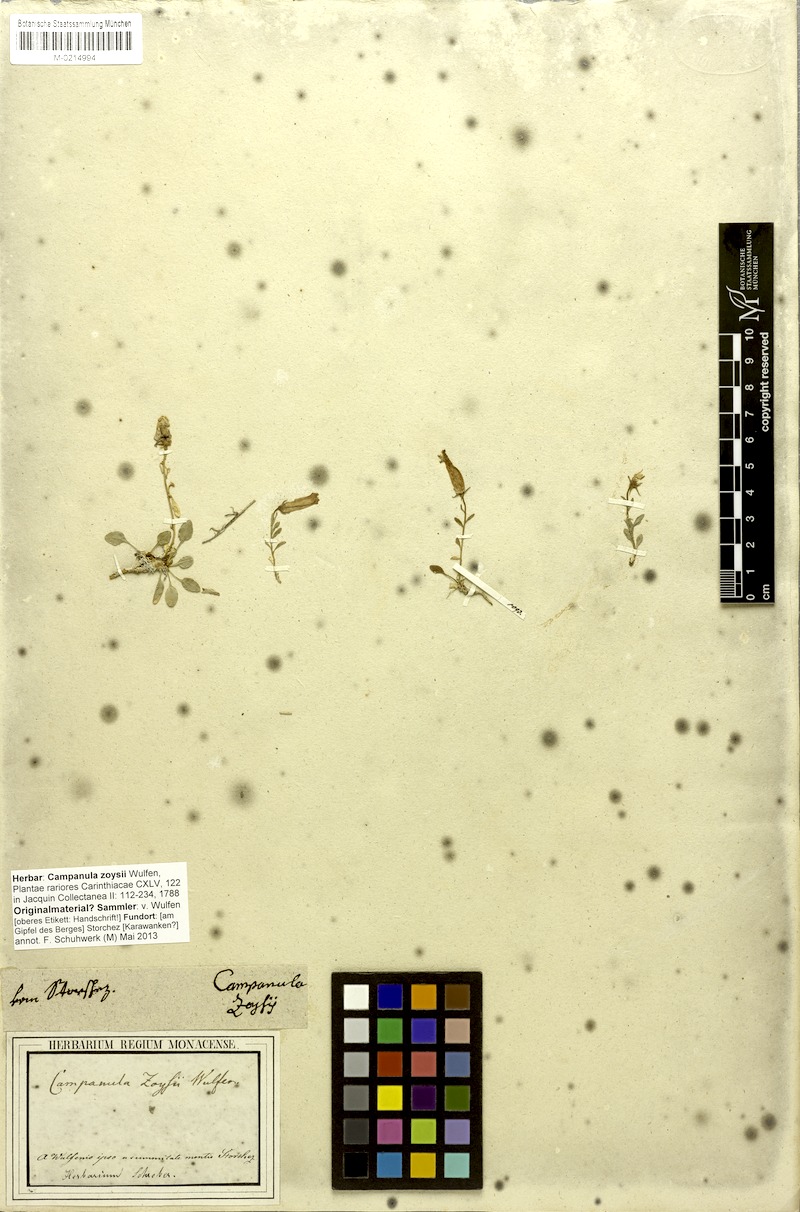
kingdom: Plantae
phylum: Tracheophyta
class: Magnoliopsida
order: Asterales
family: Campanulaceae
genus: Favratia
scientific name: Favratia zoysii
